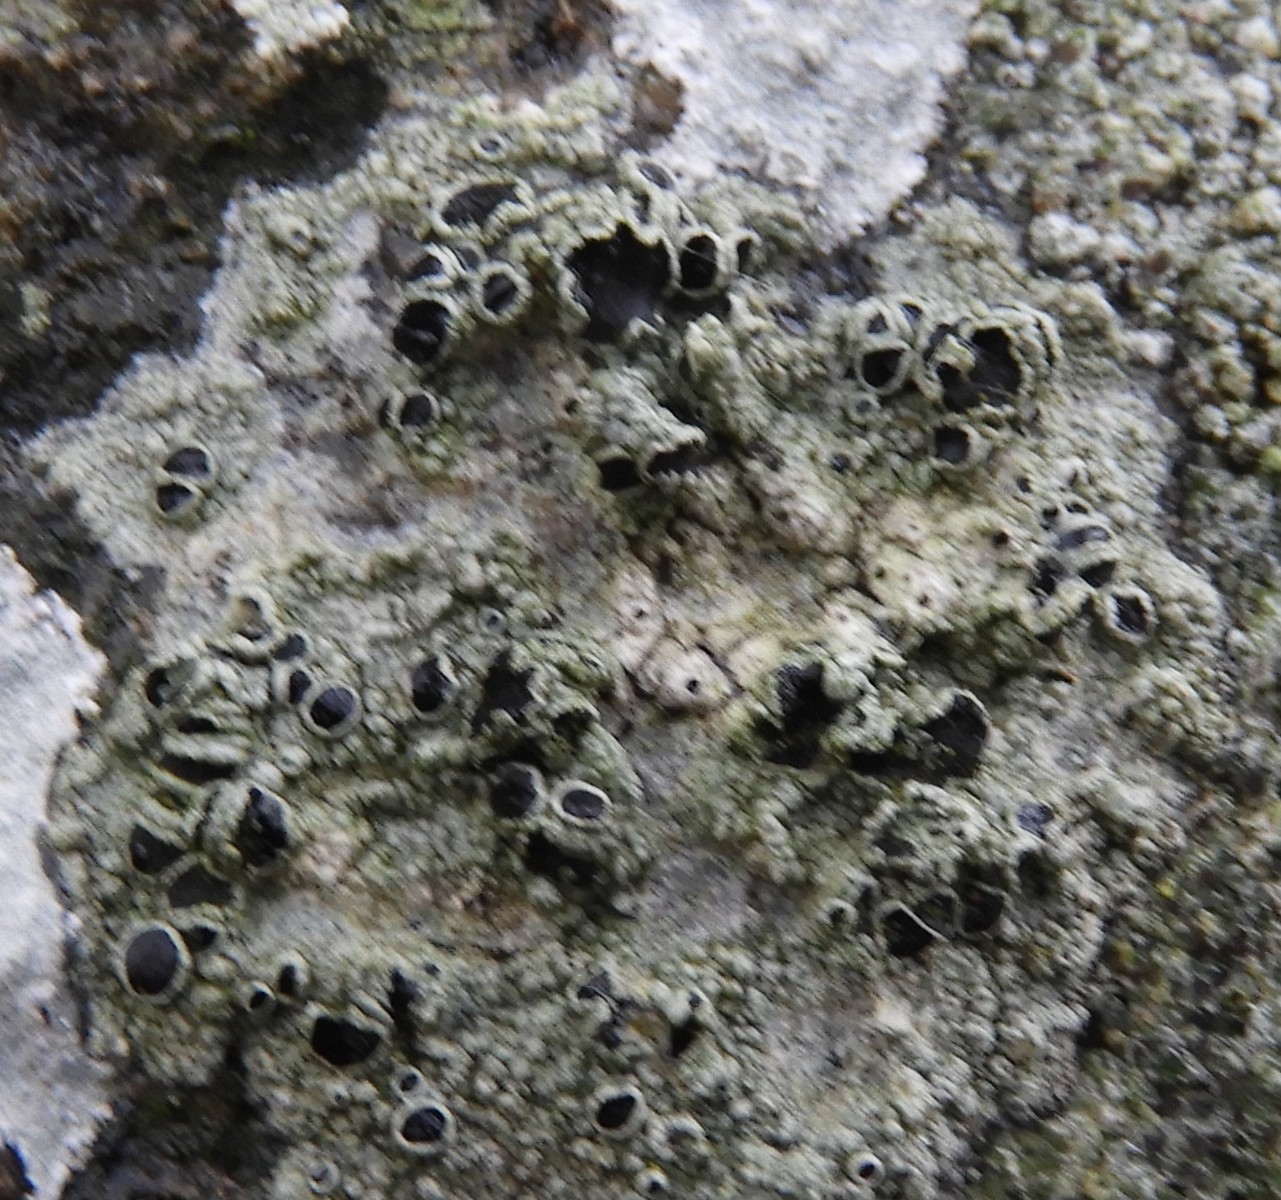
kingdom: Fungi
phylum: Ascomycota
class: Lecanoromycetes
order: Lecanorales
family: Tephromelataceae
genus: Tephromela
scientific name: Tephromela atra
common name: sortfrugtet kantskivelav
